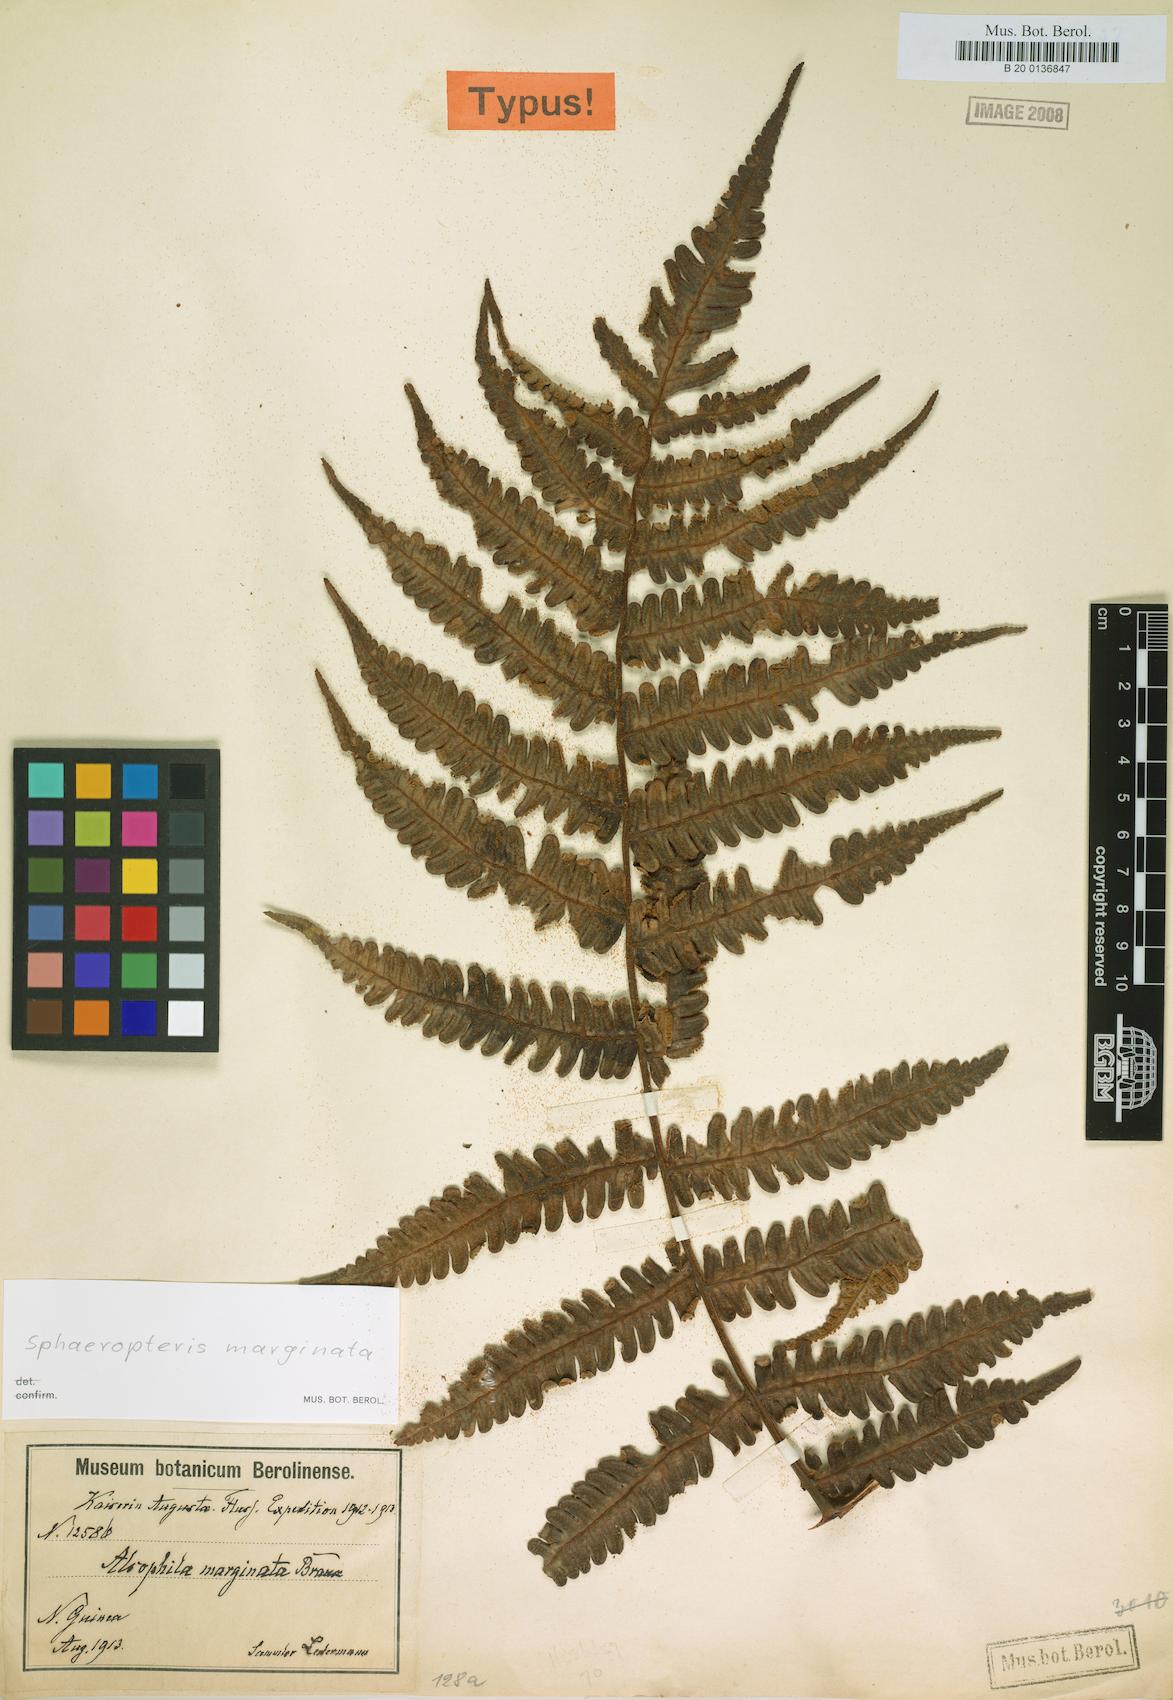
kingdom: Plantae
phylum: Tracheophyta
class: Polypodiopsida
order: Cyatheales
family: Cyatheaceae
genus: Sphaeropteris
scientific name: Sphaeropteris marginata
